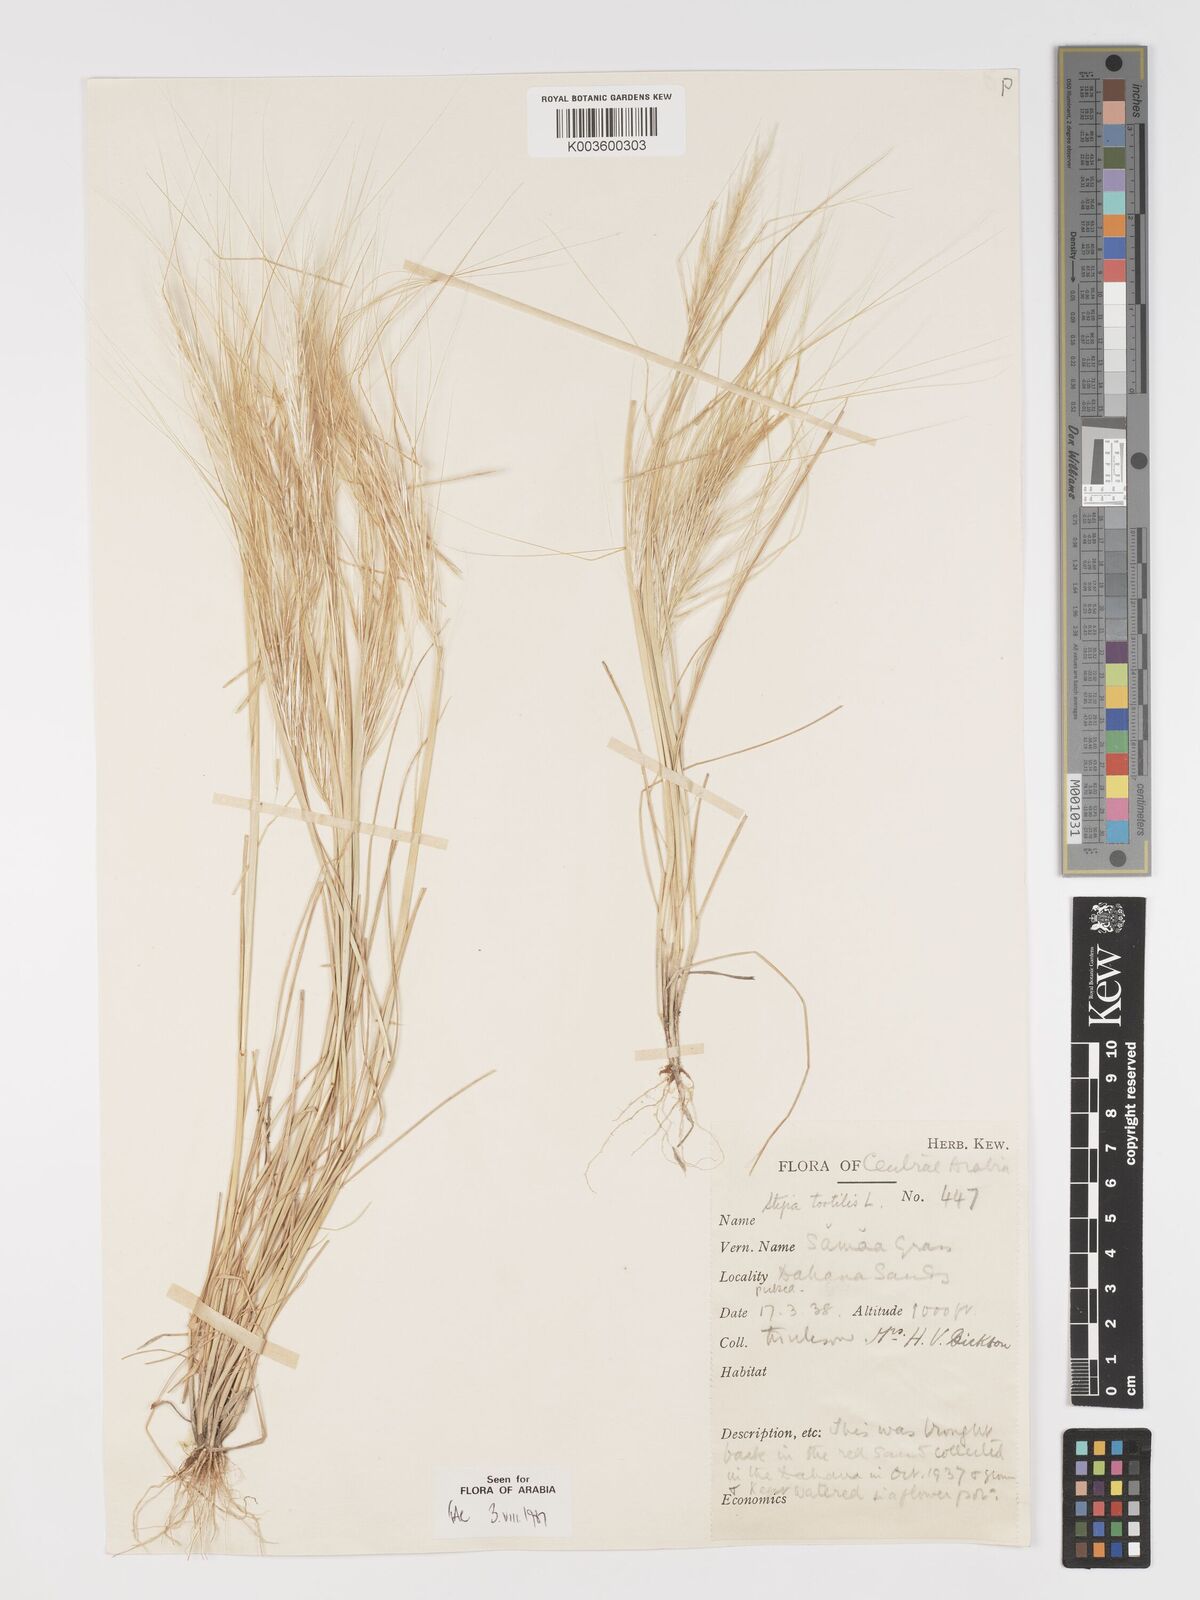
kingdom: Plantae
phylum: Tracheophyta
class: Liliopsida
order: Poales
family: Poaceae
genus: Stipellula
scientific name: Stipellula capensis
